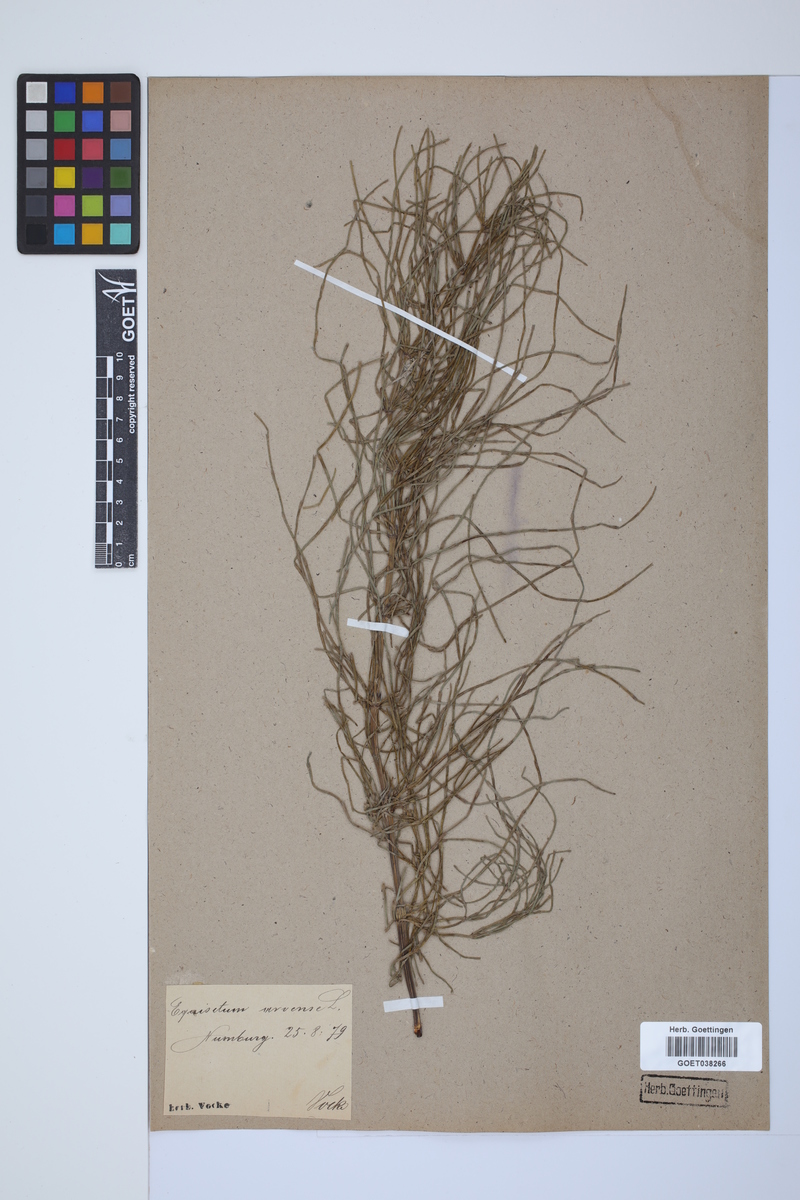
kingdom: Plantae
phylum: Tracheophyta
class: Polypodiopsida
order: Equisetales
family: Equisetaceae
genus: Equisetum
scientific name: Equisetum arvense
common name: Field horsetail
